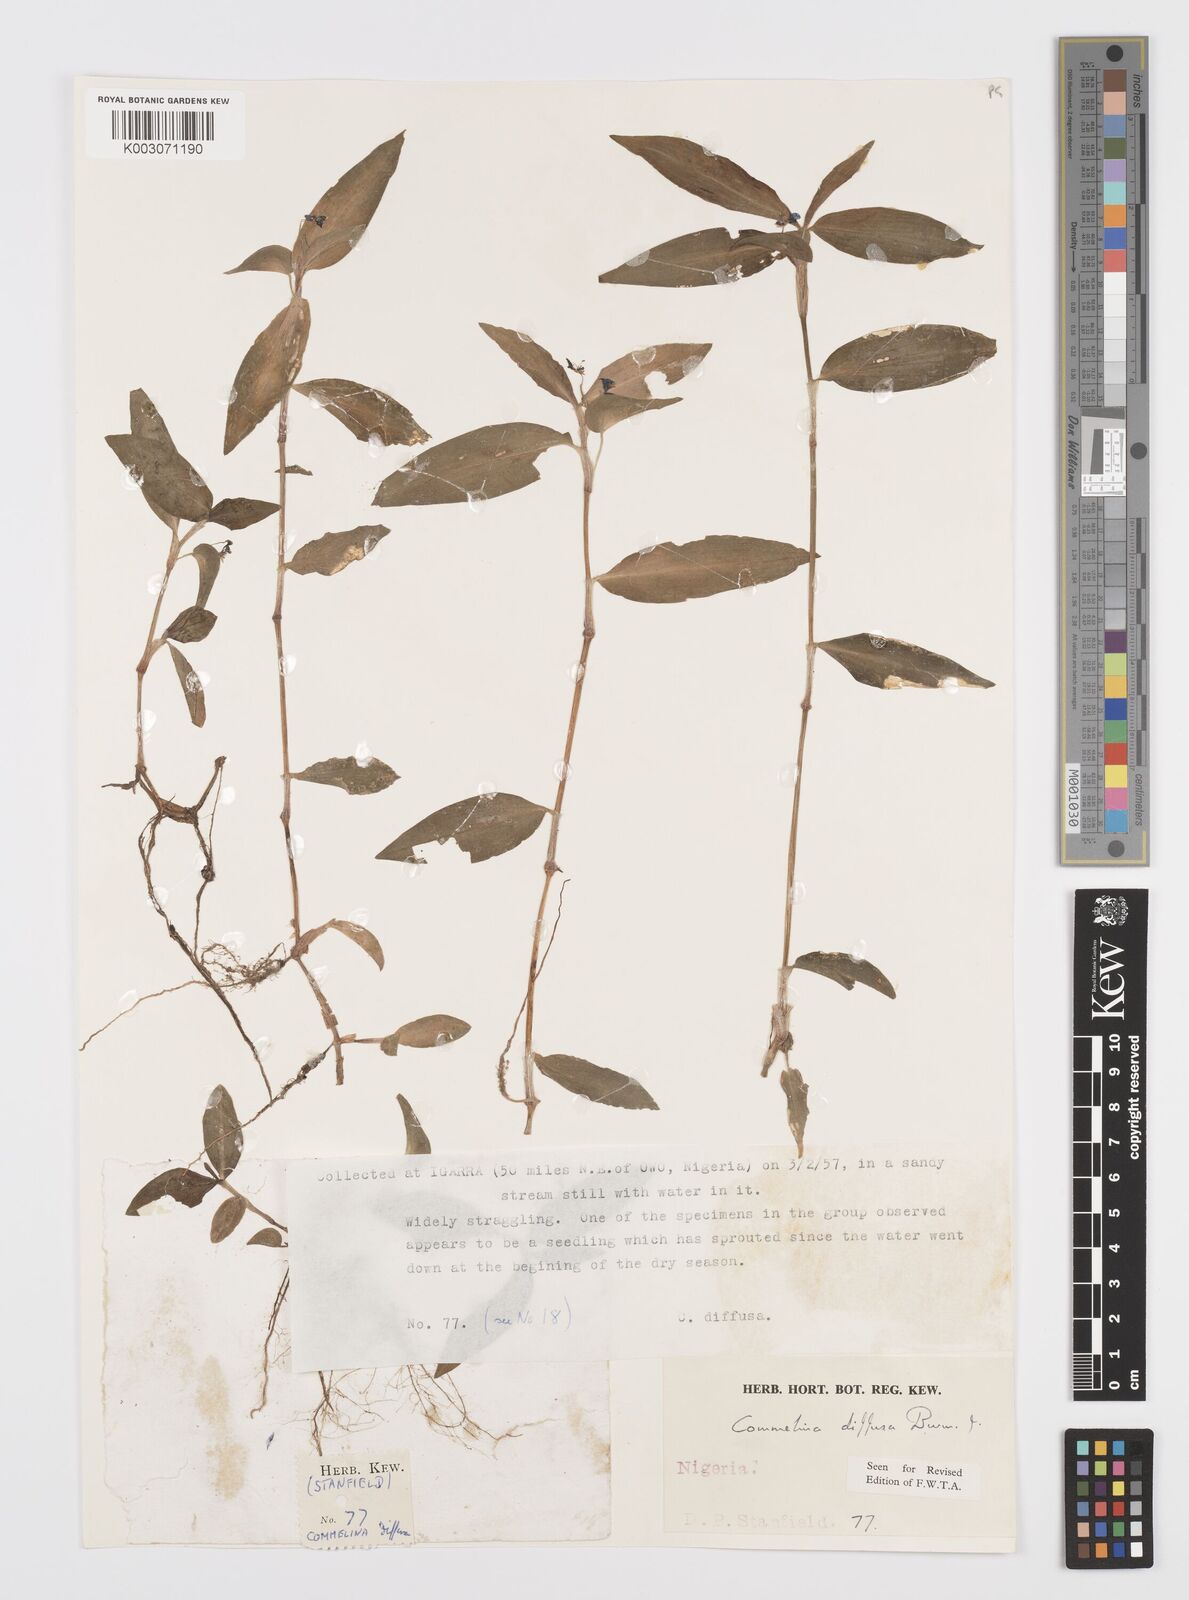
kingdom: Plantae
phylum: Tracheophyta
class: Liliopsida
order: Commelinales
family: Commelinaceae
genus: Commelina
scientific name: Commelina diffusa
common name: Climbing dayflower
